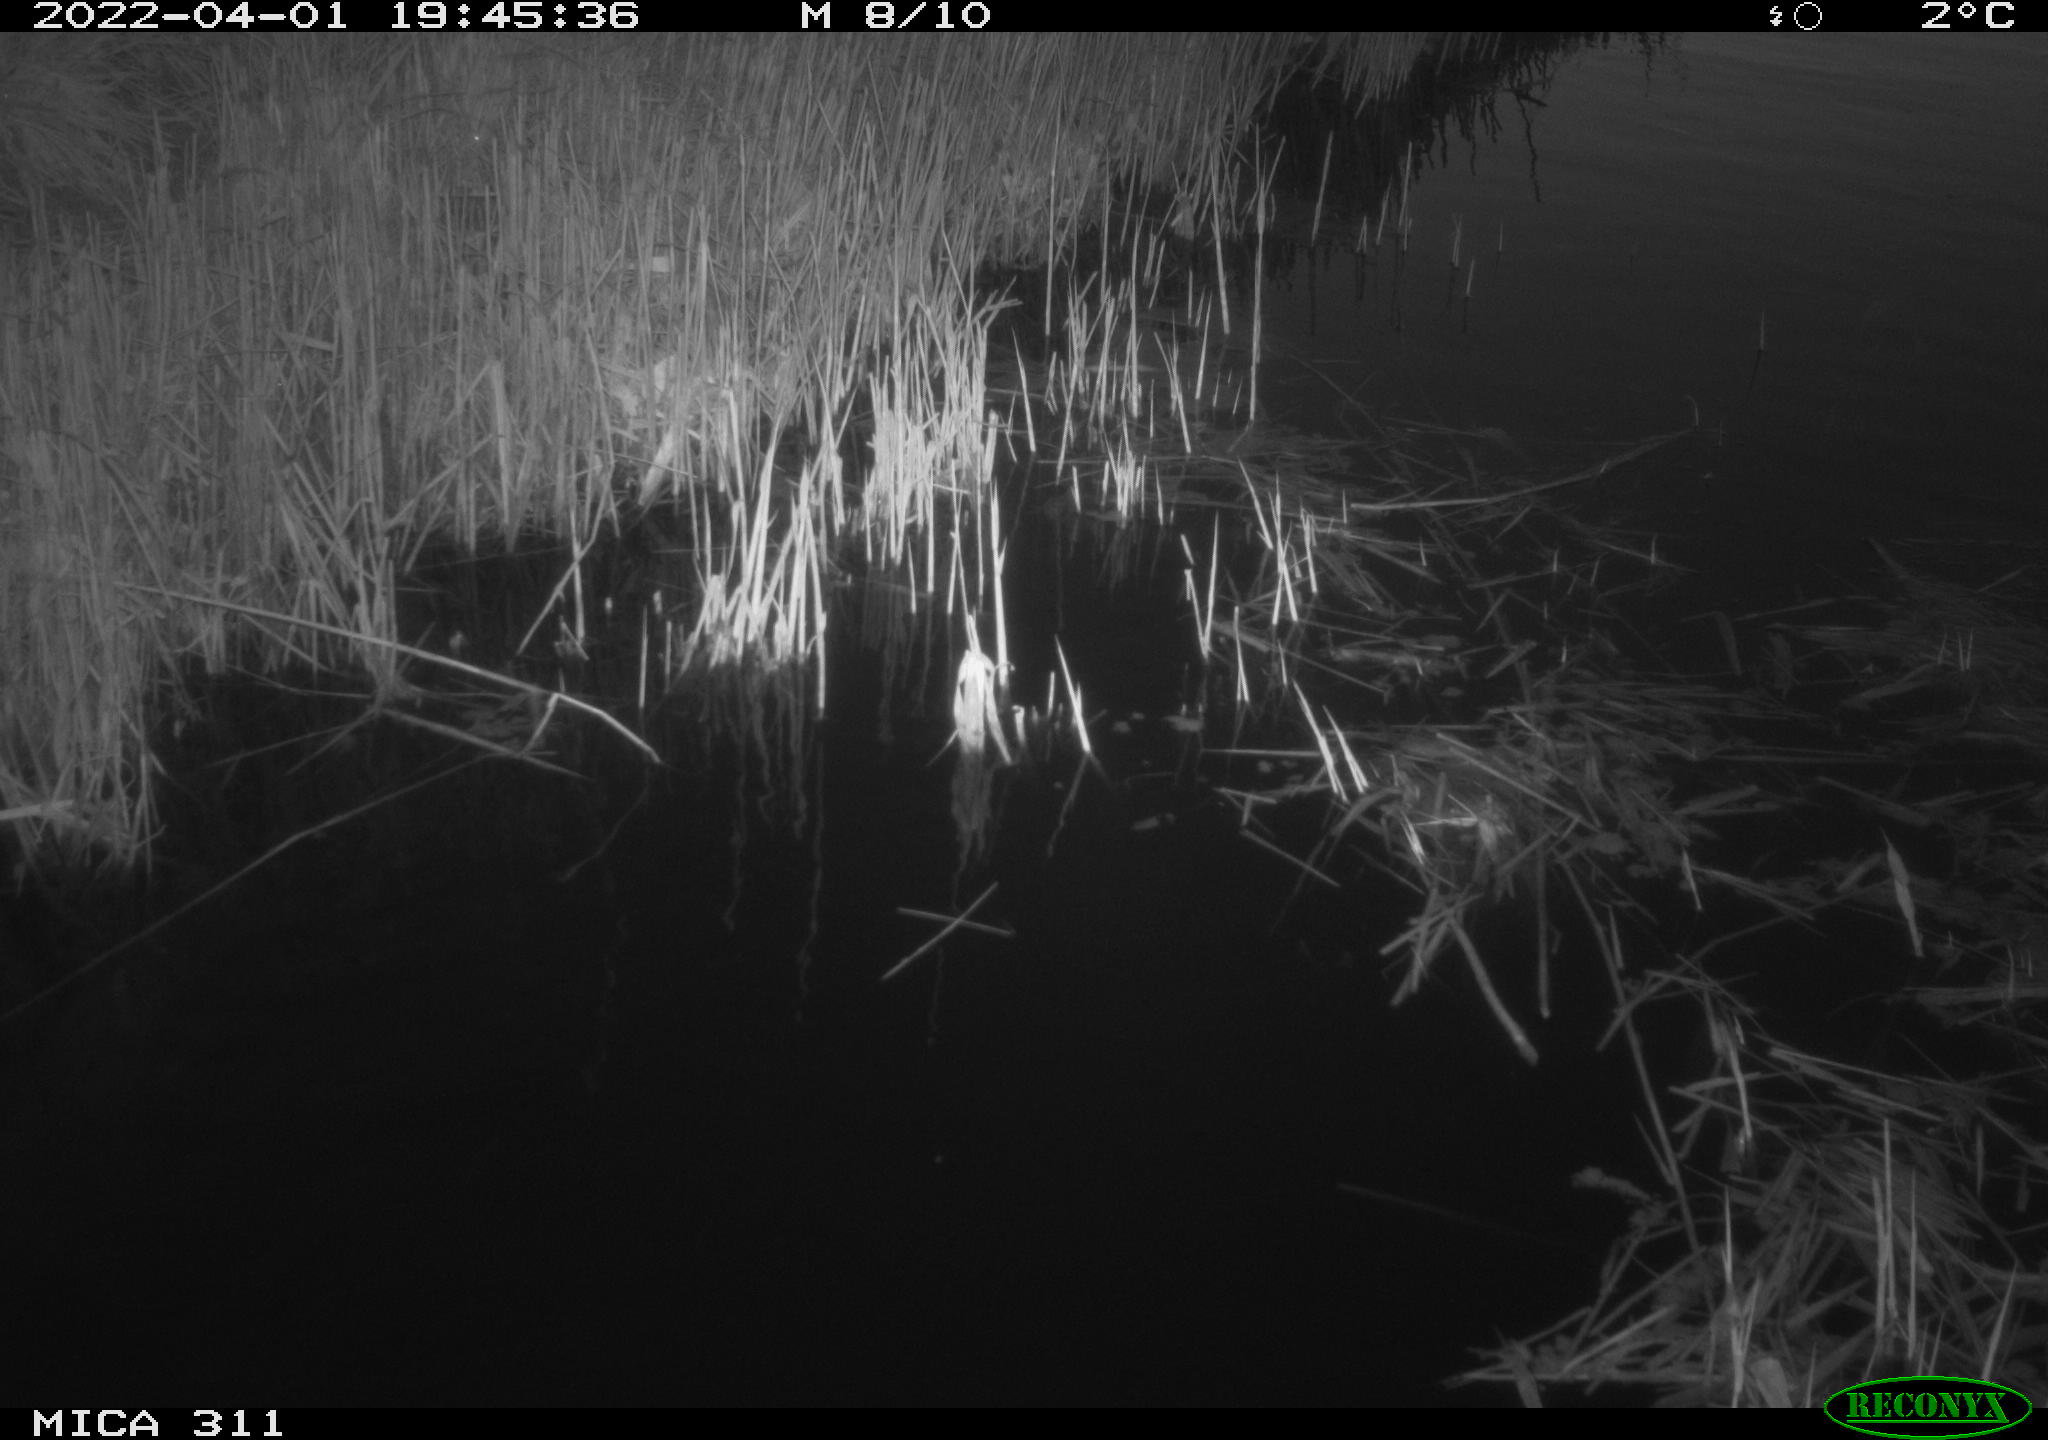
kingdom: Animalia
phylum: Chordata
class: Aves
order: Gruiformes
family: Rallidae
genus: Gallinula
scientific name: Gallinula chloropus
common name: Common moorhen
